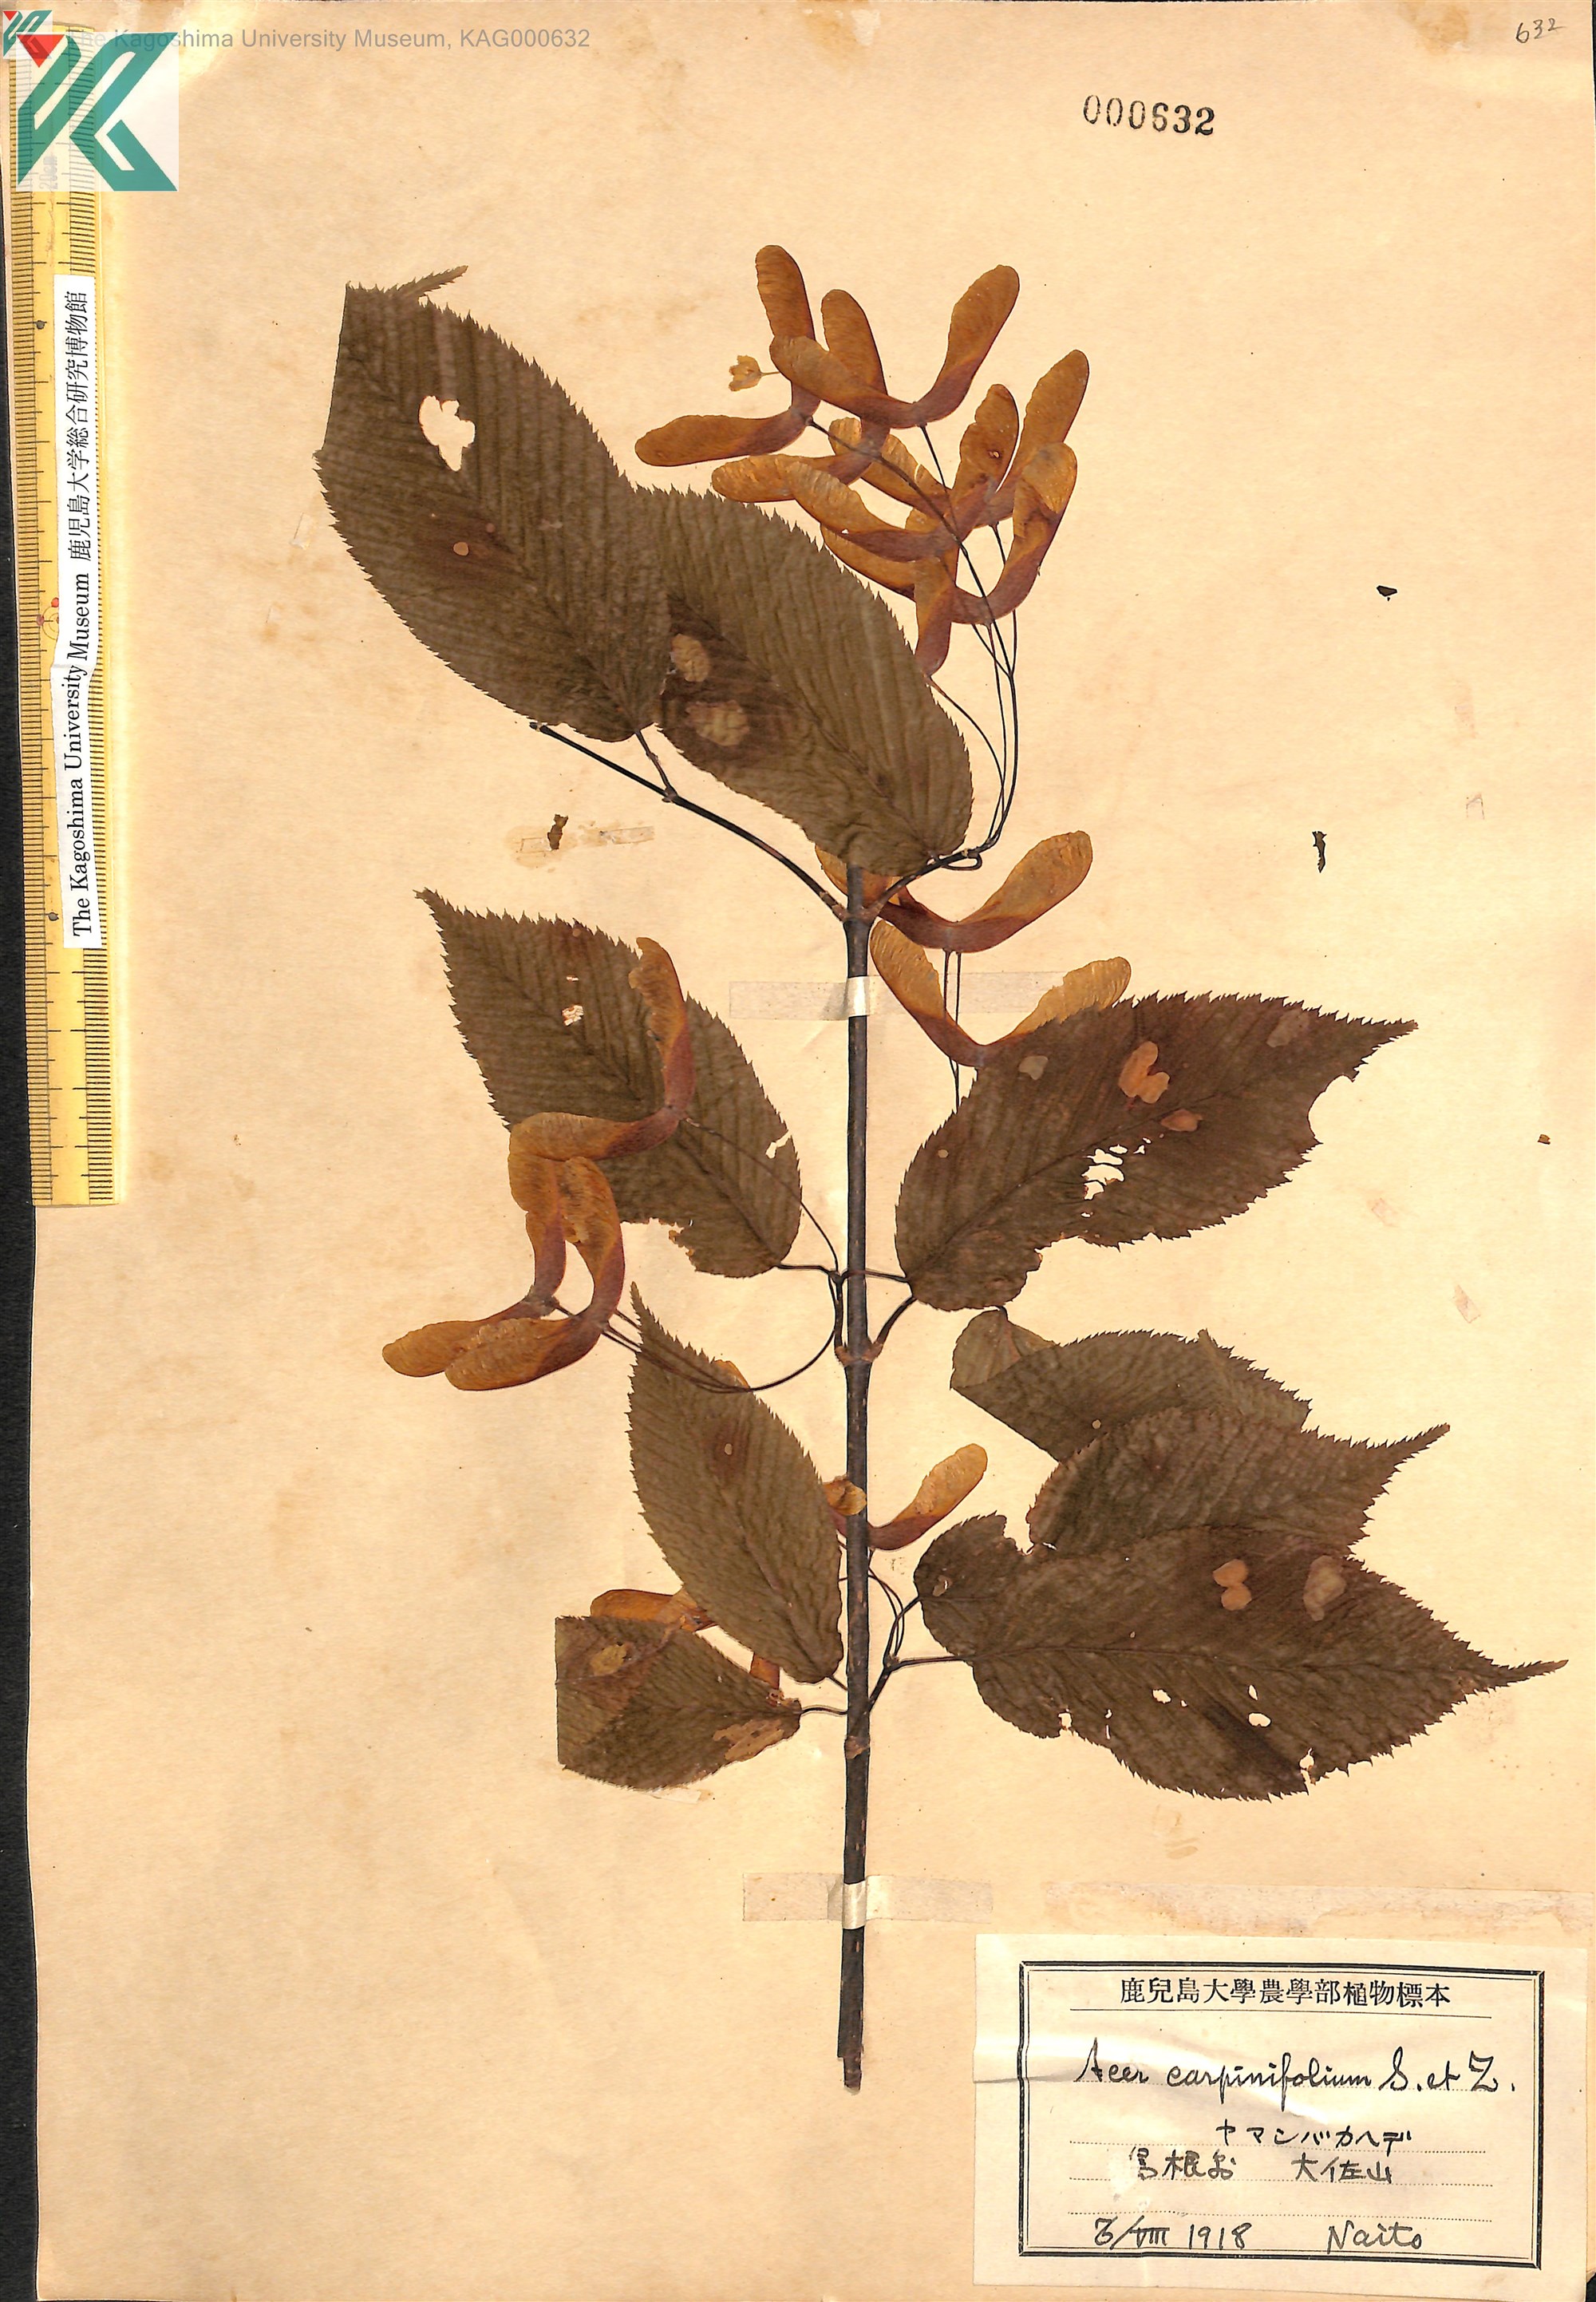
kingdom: Plantae
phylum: Tracheophyta
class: Magnoliopsida
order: Sapindales
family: Sapindaceae
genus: Acer
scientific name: Acer carpinifolium
